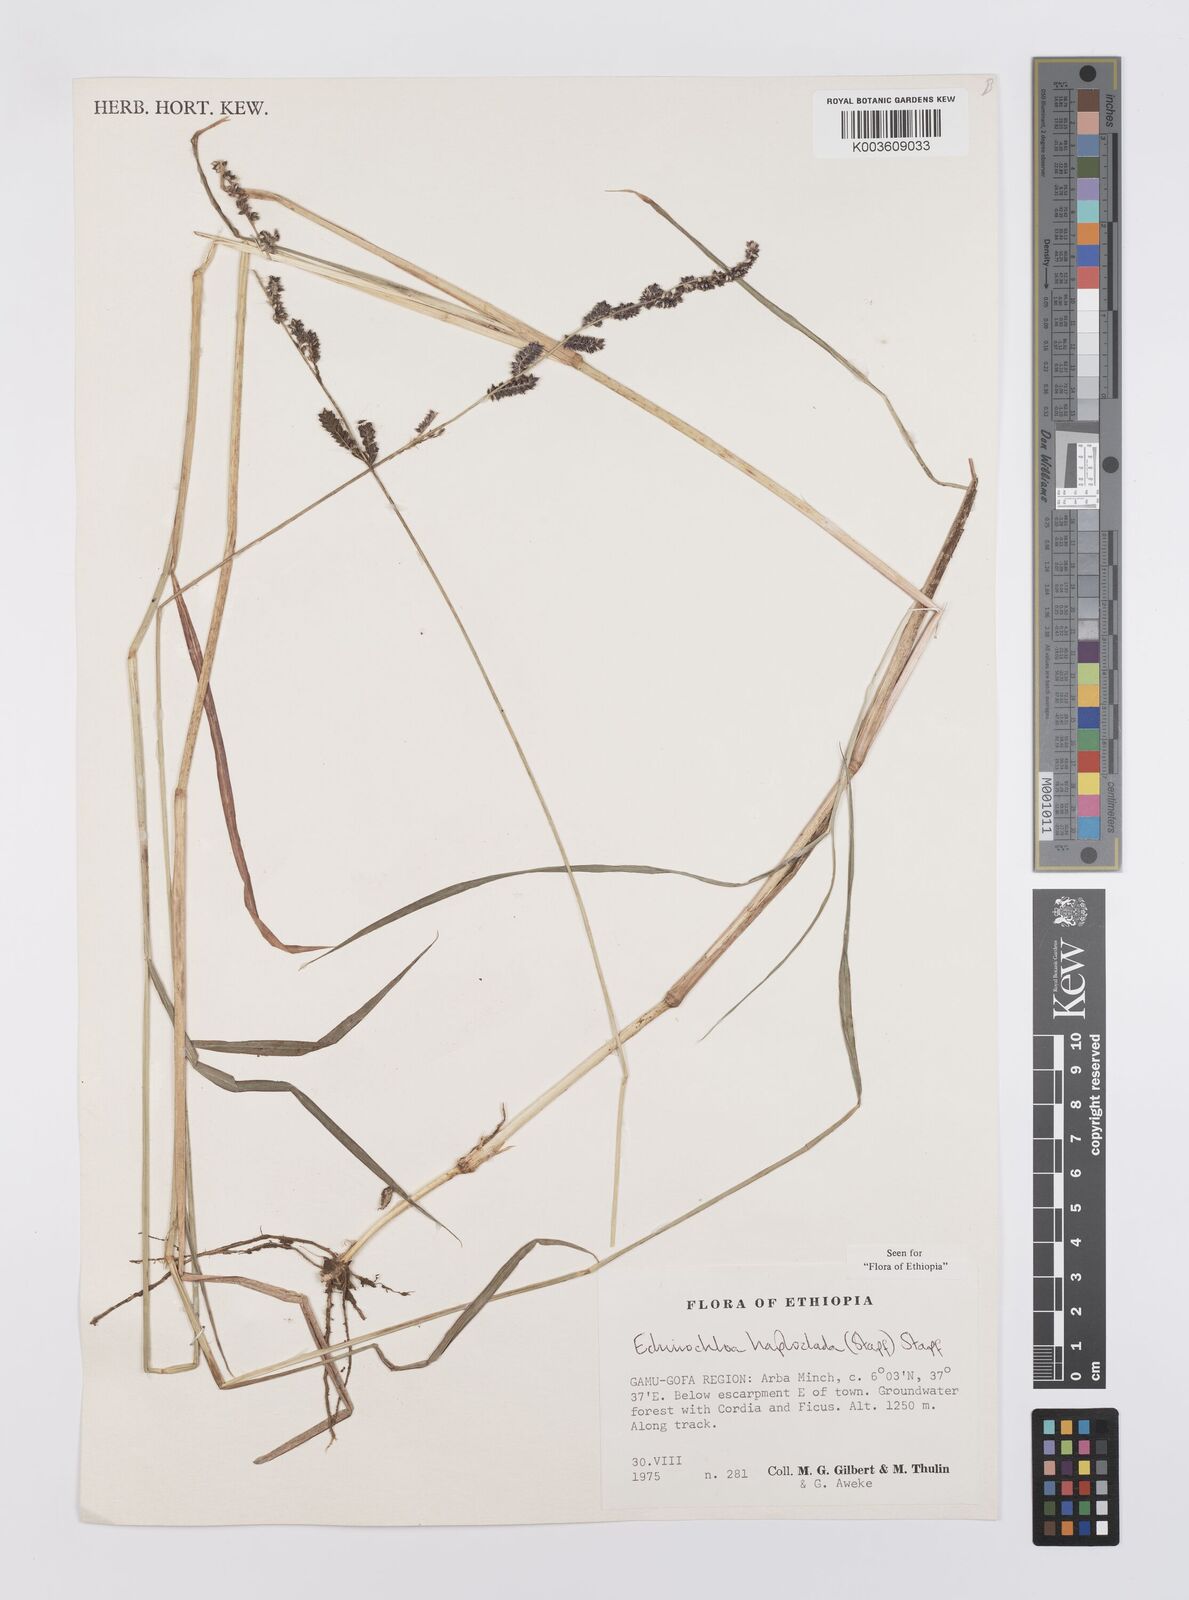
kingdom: Plantae
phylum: Tracheophyta
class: Liliopsida
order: Poales
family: Poaceae
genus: Echinochloa
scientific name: Echinochloa haploclada
